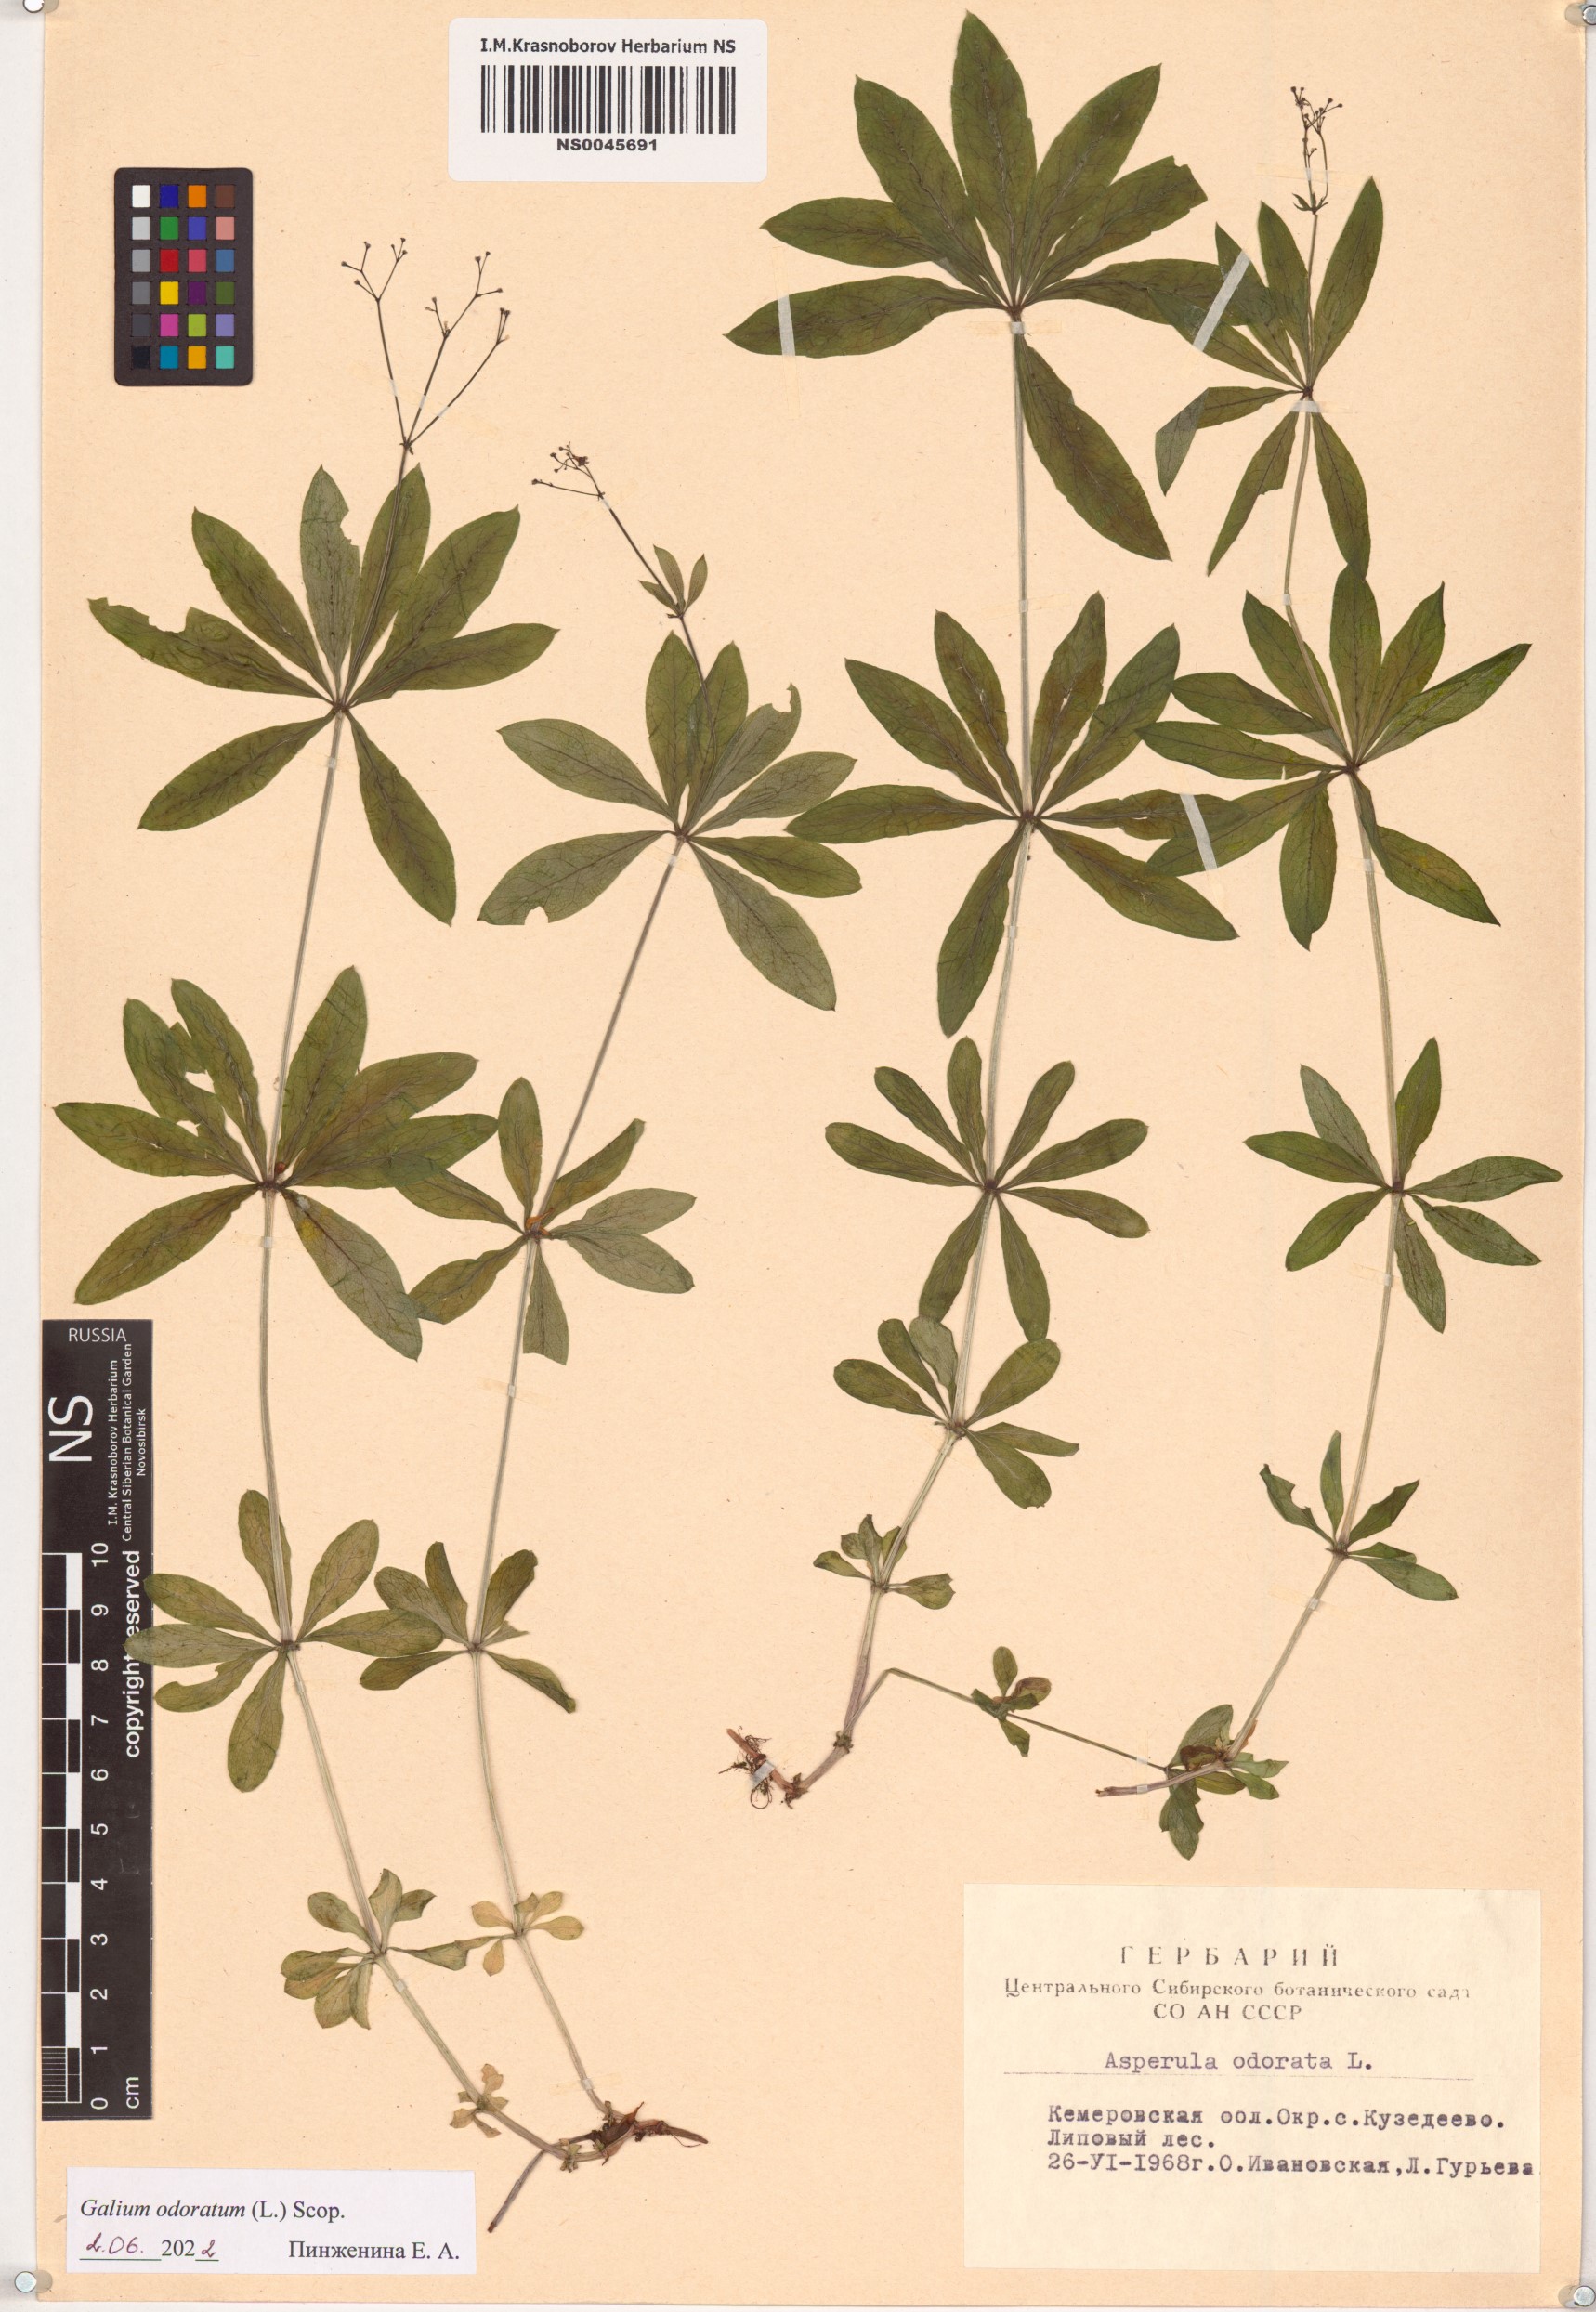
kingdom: Plantae
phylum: Tracheophyta
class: Magnoliopsida
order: Gentianales
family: Rubiaceae
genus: Galium
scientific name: Galium odoratum
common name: Sweet woodruff
